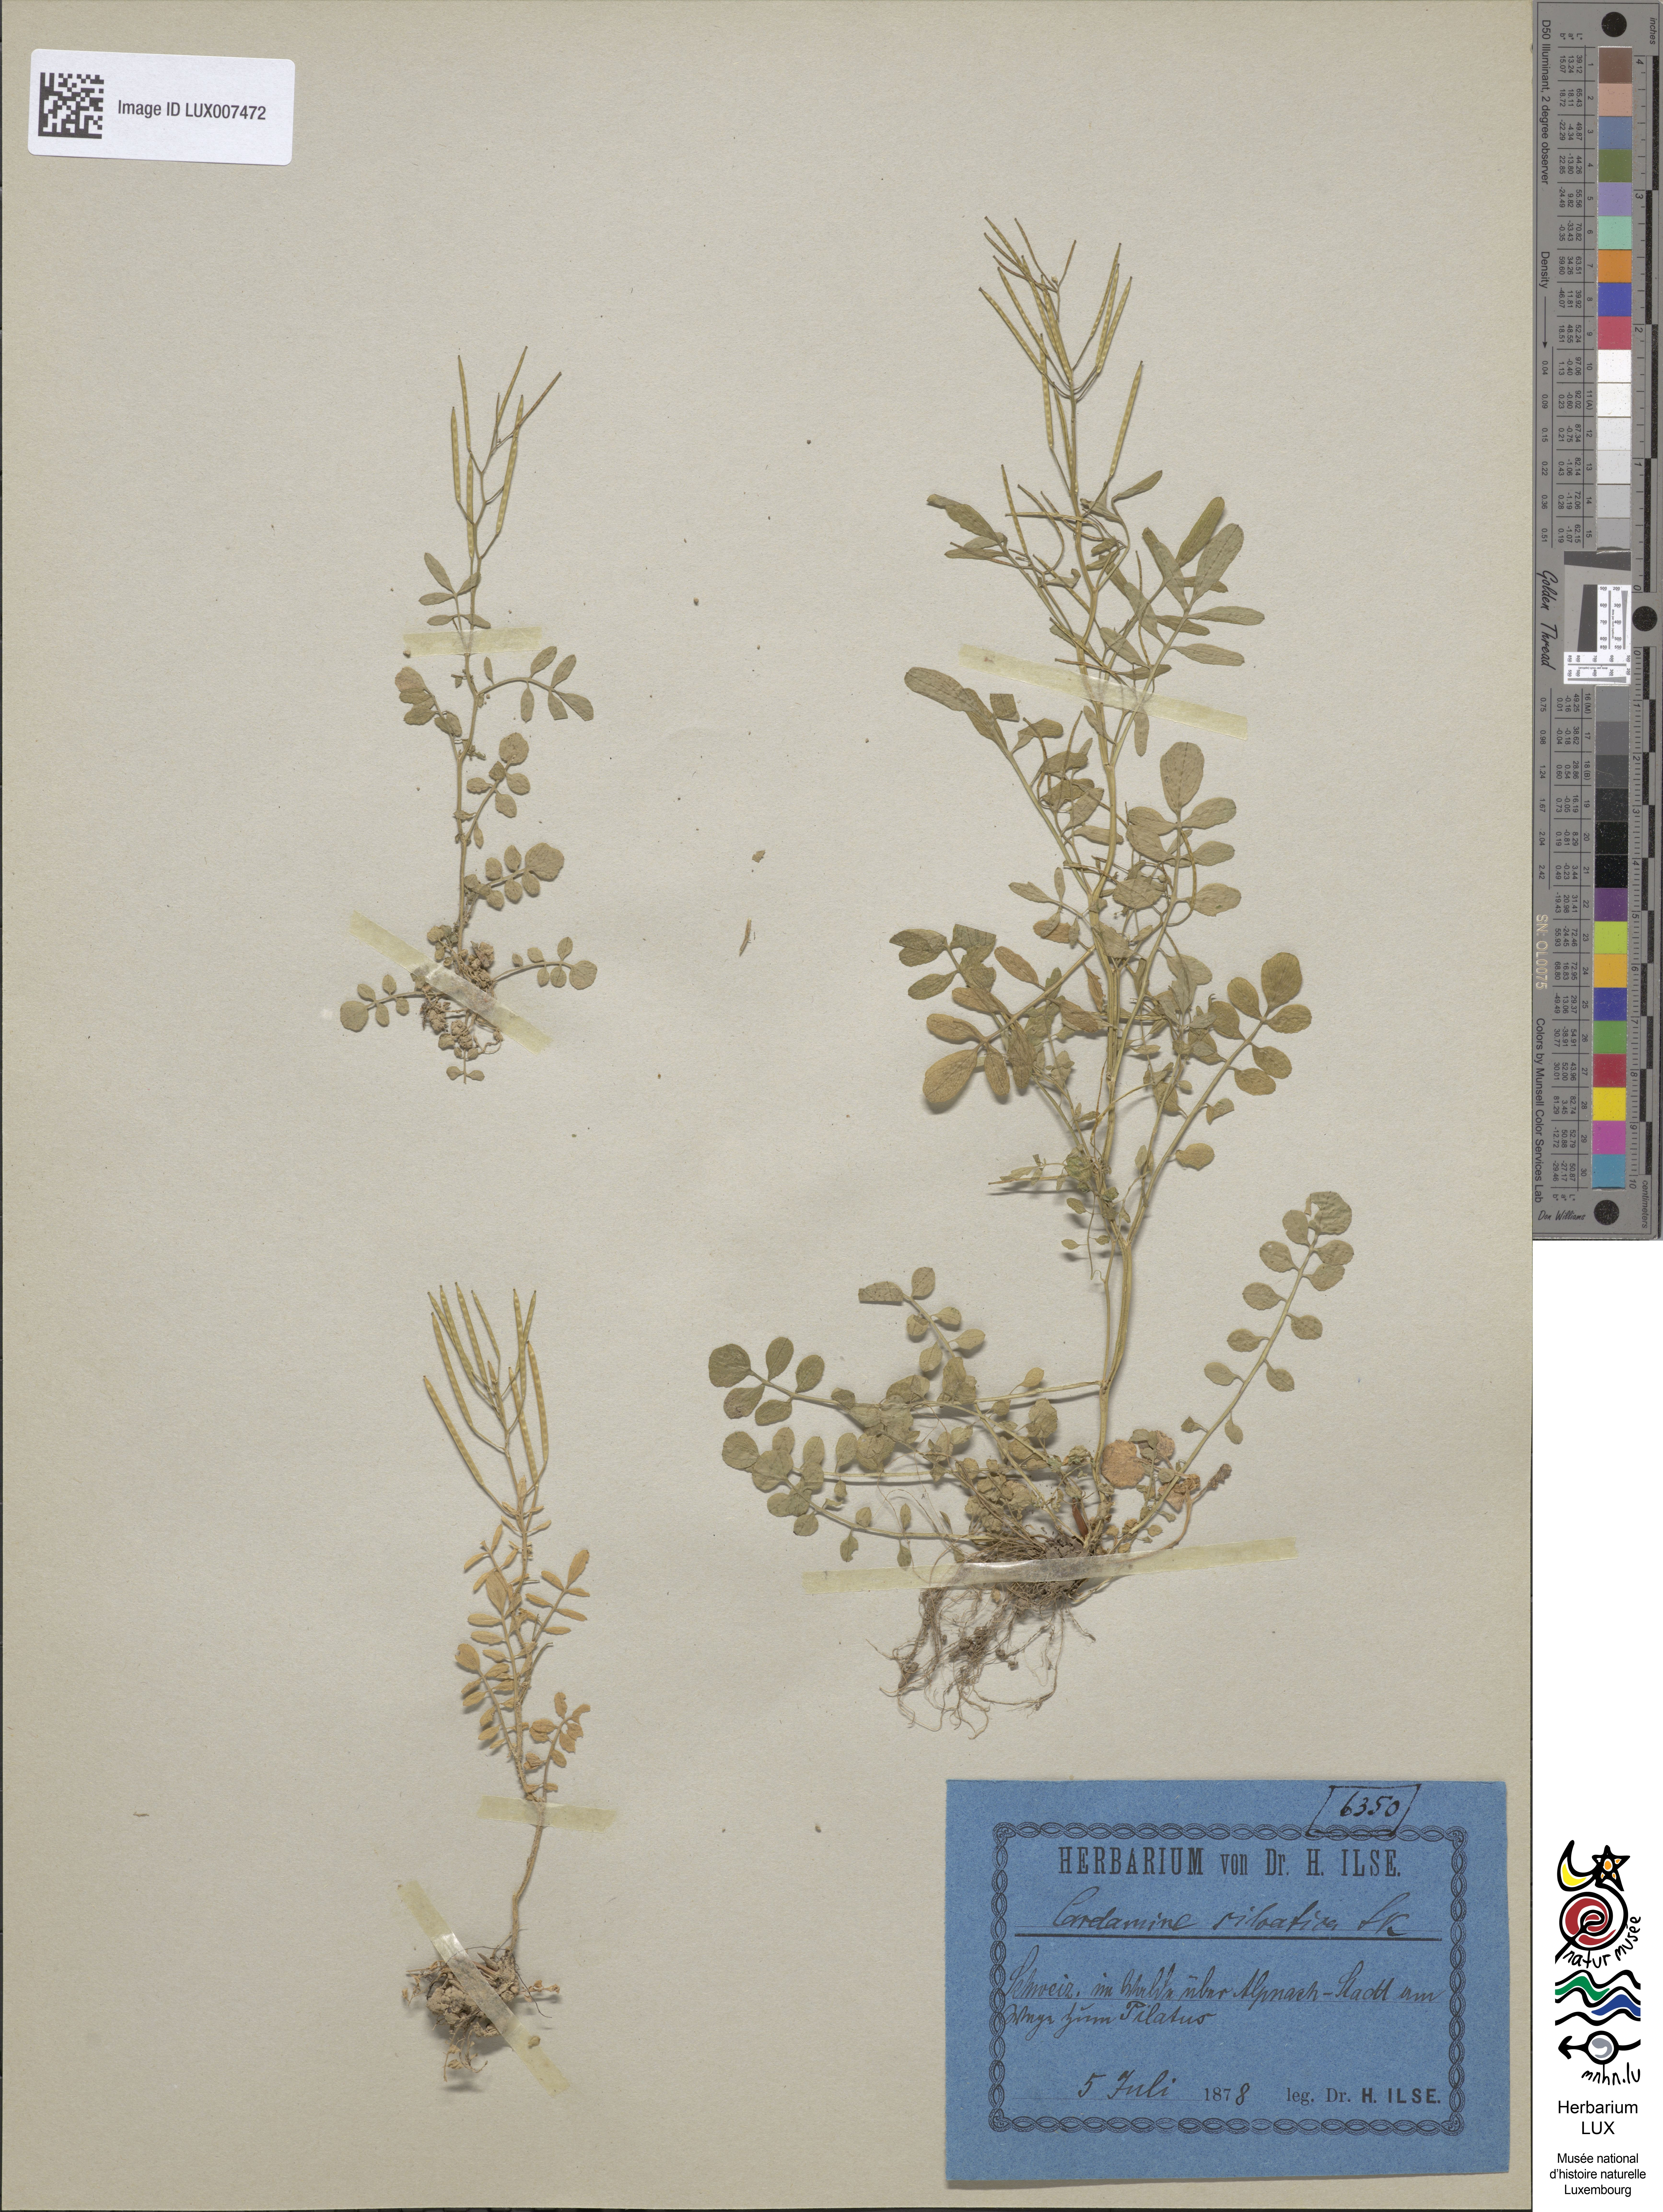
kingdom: Plantae
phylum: Tracheophyta
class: Magnoliopsida
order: Brassicales
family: Brassicaceae
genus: Cardamine
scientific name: Cardamine flexuosa
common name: Woodland bittercress
